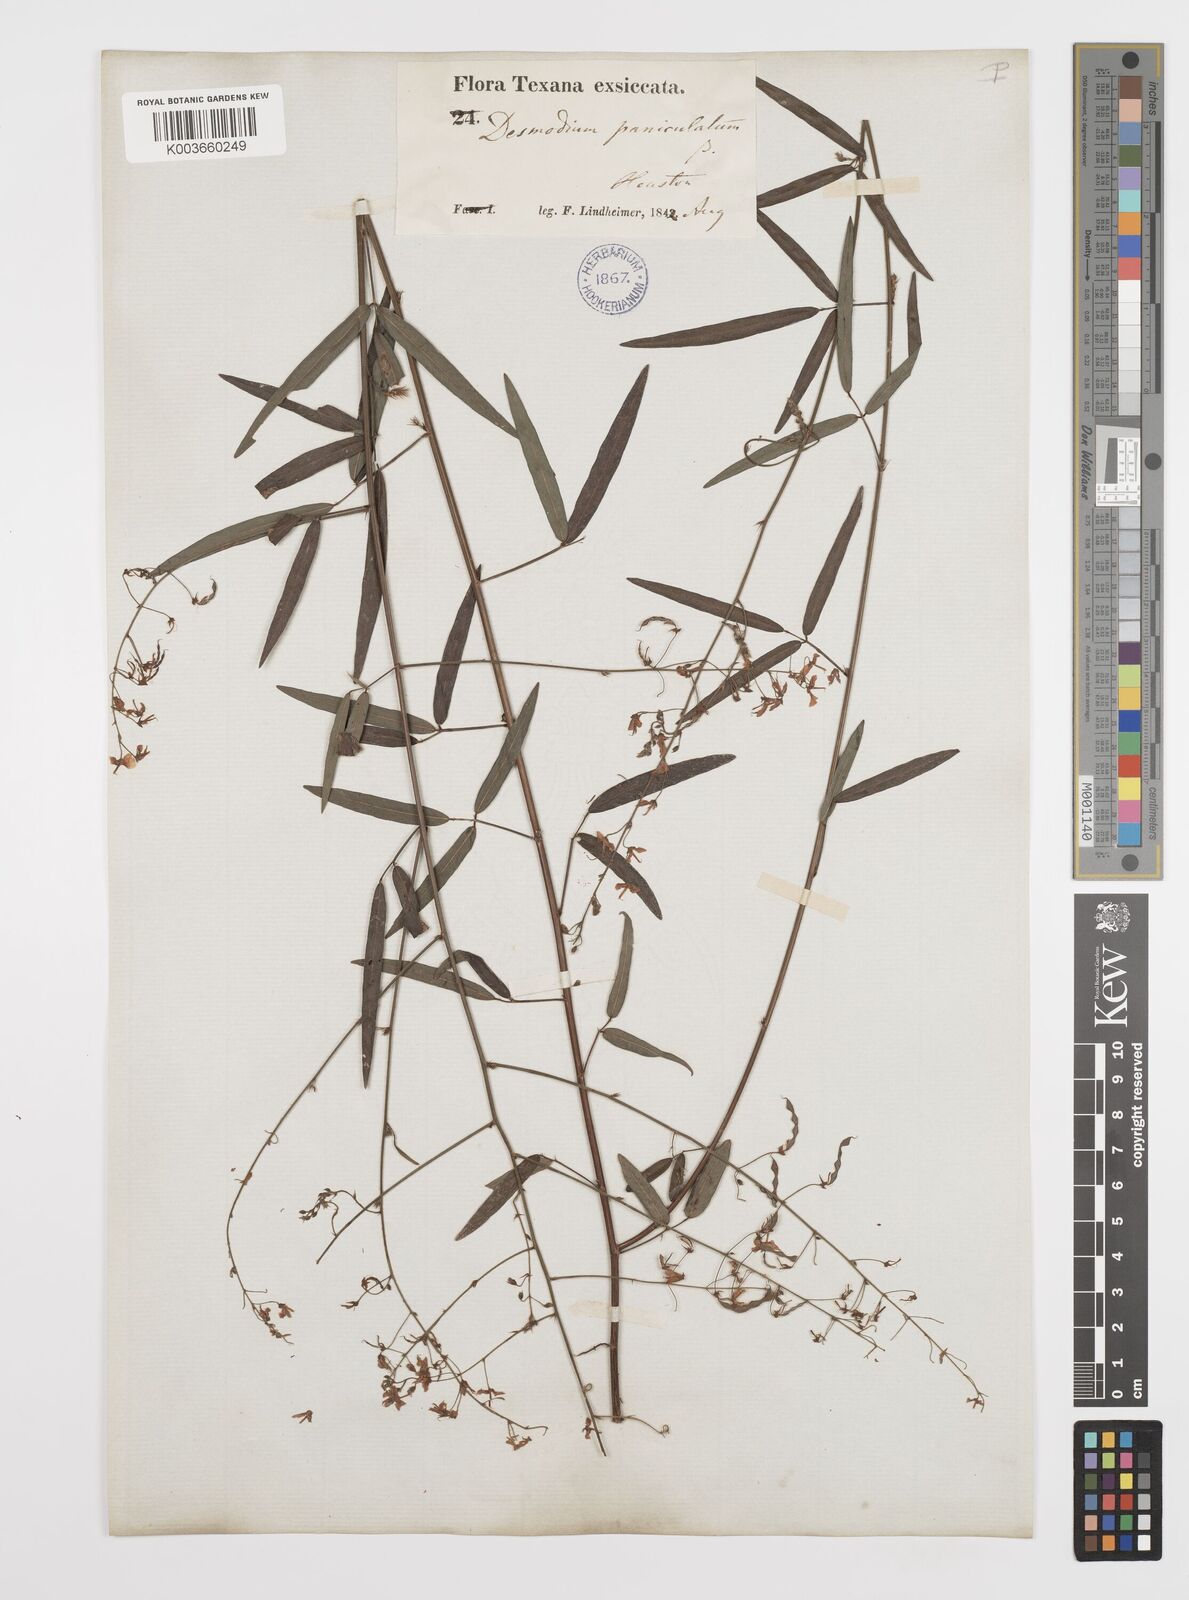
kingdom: Plantae
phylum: Tracheophyta
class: Magnoliopsida
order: Fabales
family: Fabaceae
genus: Desmodium
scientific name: Desmodium paniculatum
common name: Panicled tick-clover
